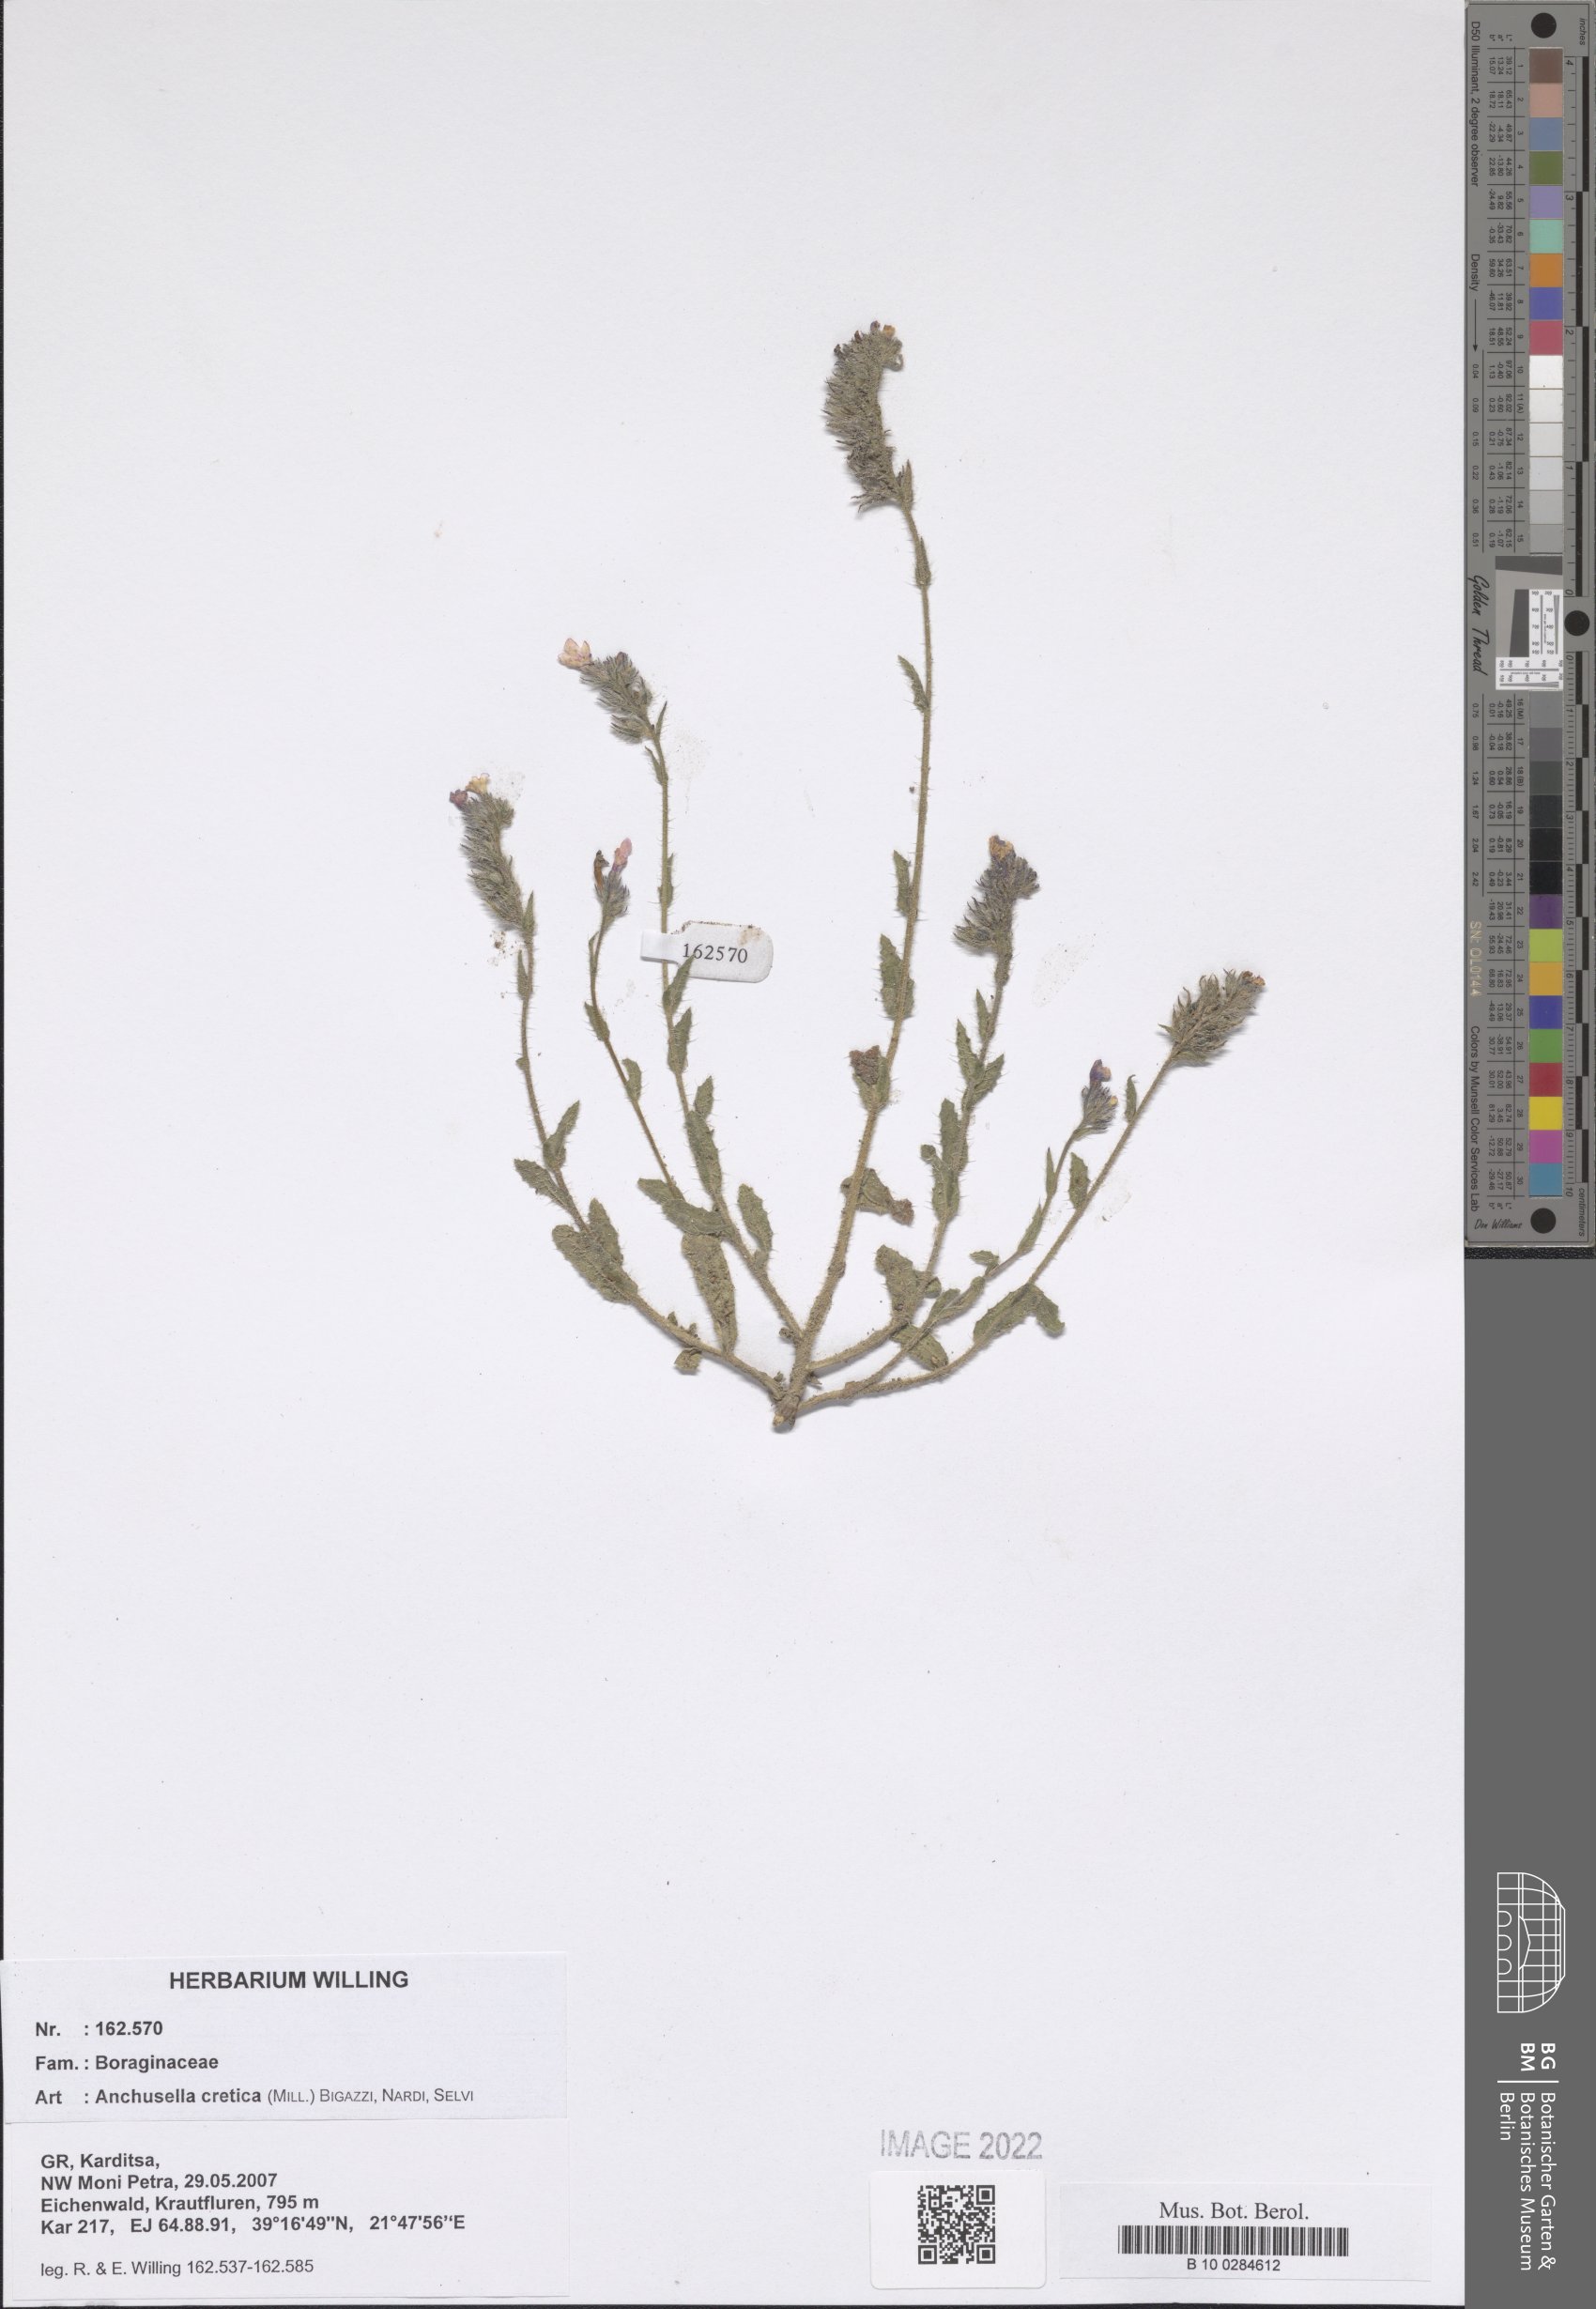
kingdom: Plantae
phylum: Tracheophyta
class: Magnoliopsida
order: Boraginales
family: Boraginaceae
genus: Lycopsis
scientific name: Lycopsis arvensis
